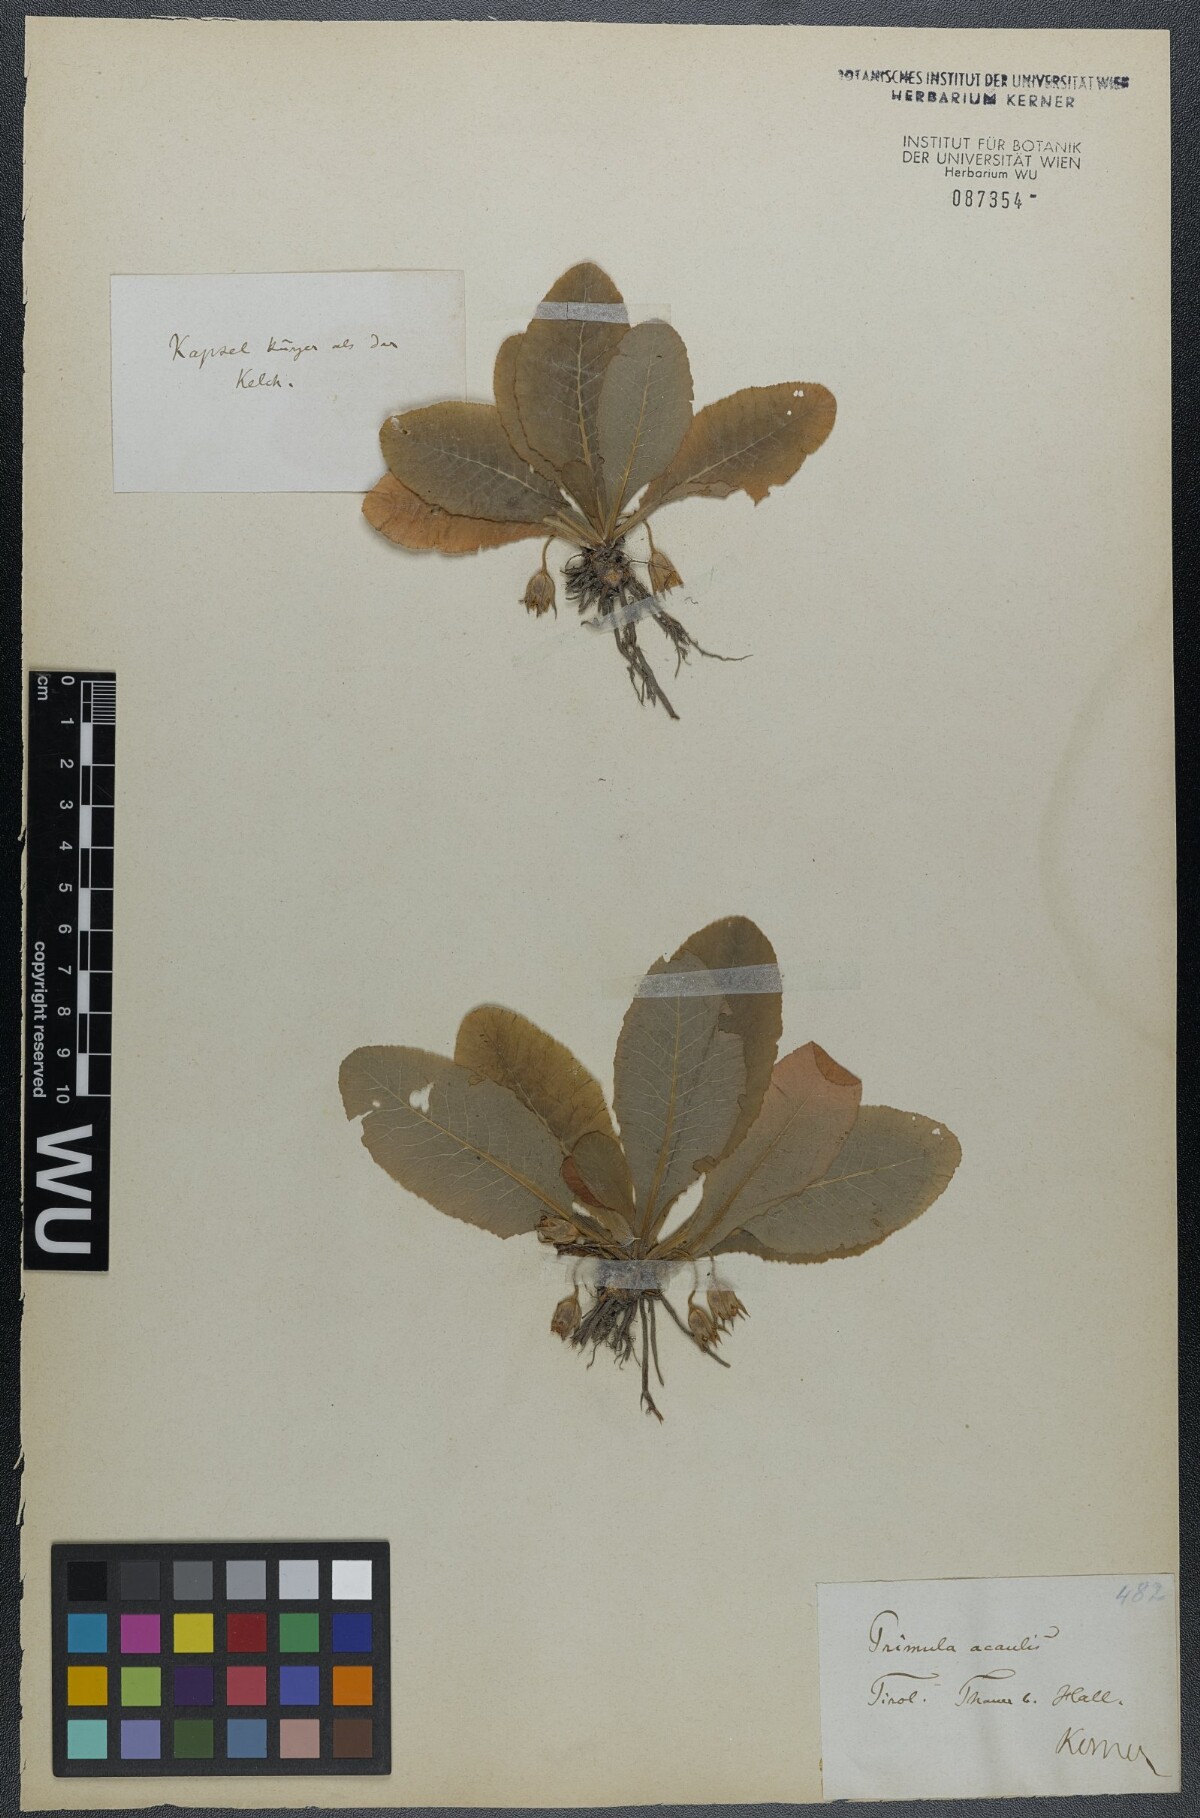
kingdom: Plantae
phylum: Tracheophyta
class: Magnoliopsida
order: Ericales
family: Primulaceae
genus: Primula
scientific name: Primula vulgaris
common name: Primrose
